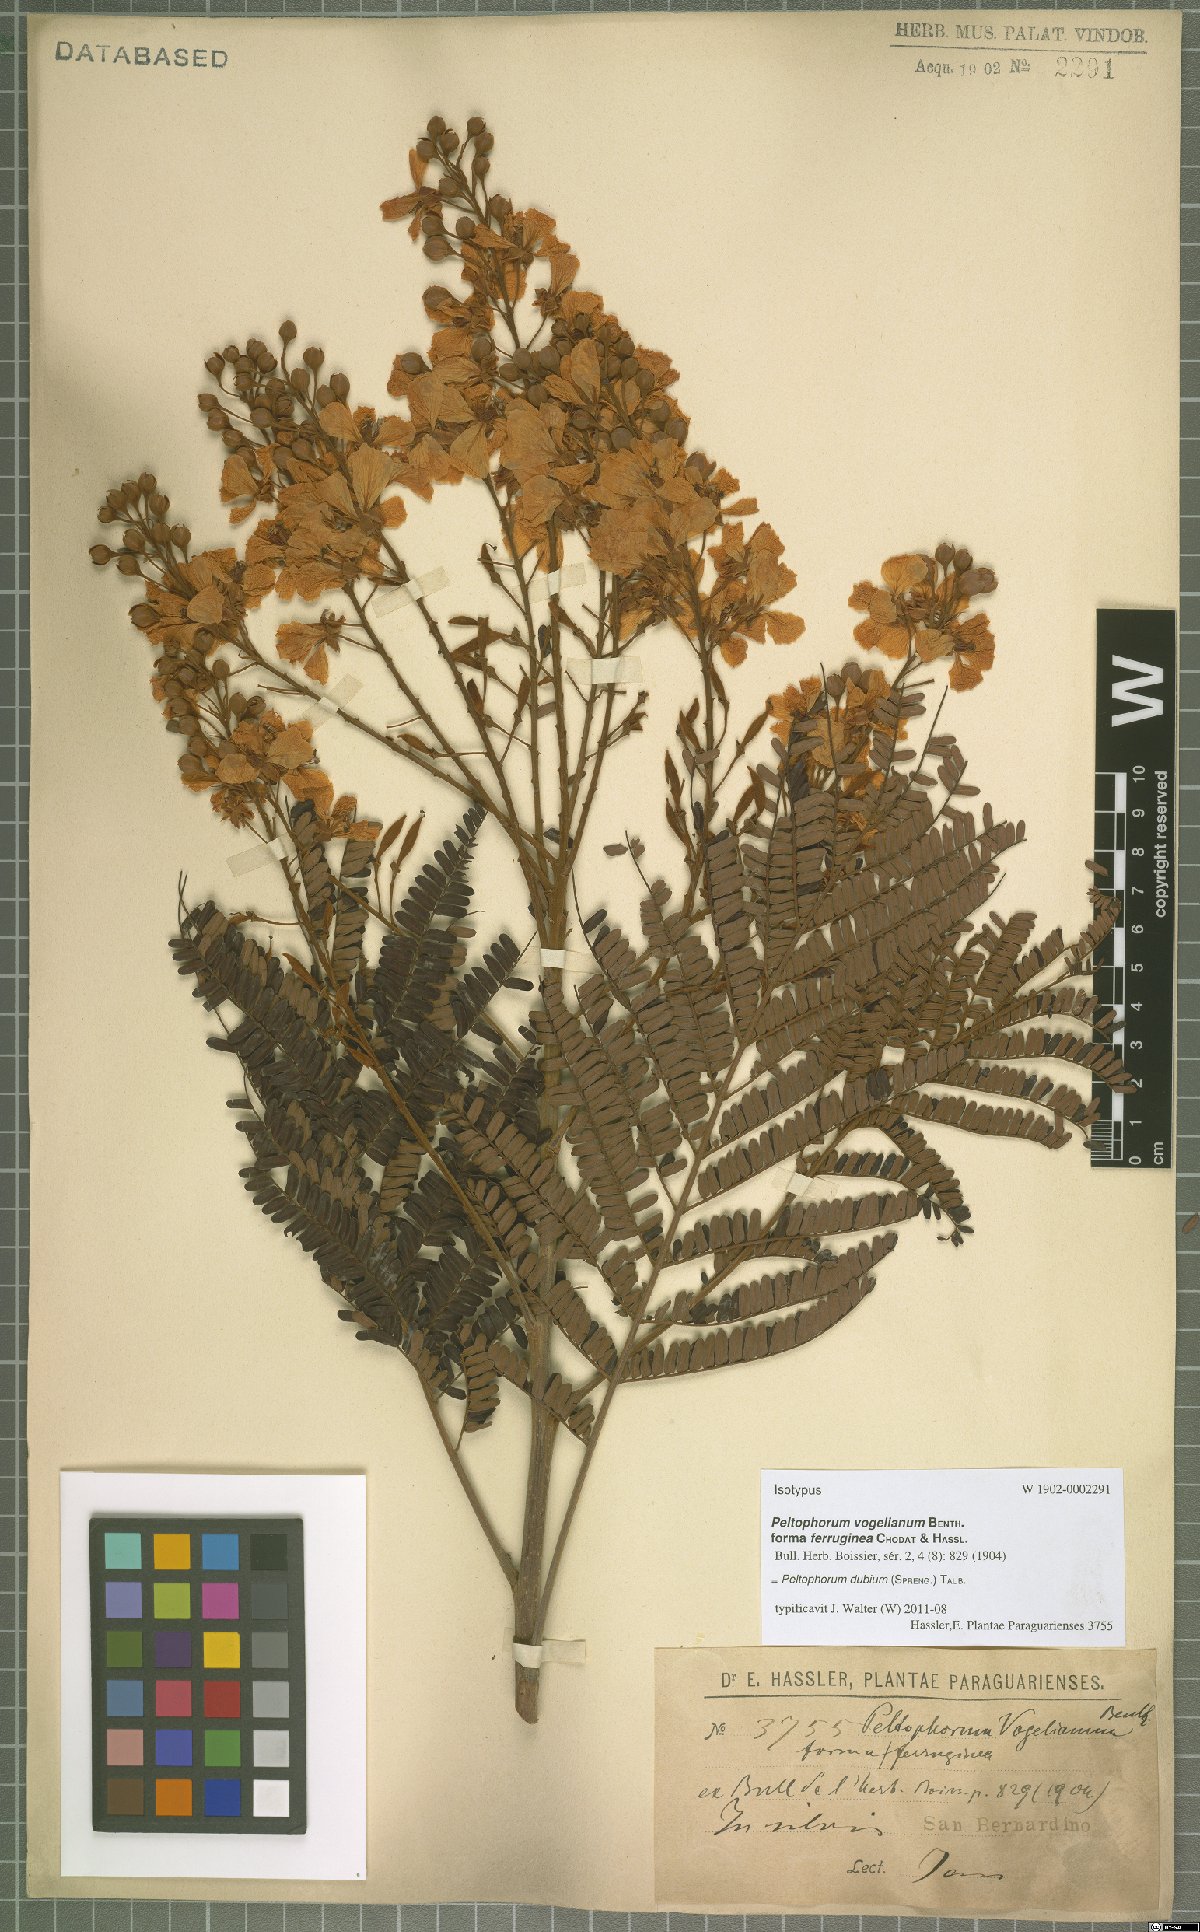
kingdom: Plantae
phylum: Tracheophyta
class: Magnoliopsida
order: Fabales
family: Fabaceae
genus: Peltophorum
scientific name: Peltophorum dubium
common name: Horsebush
